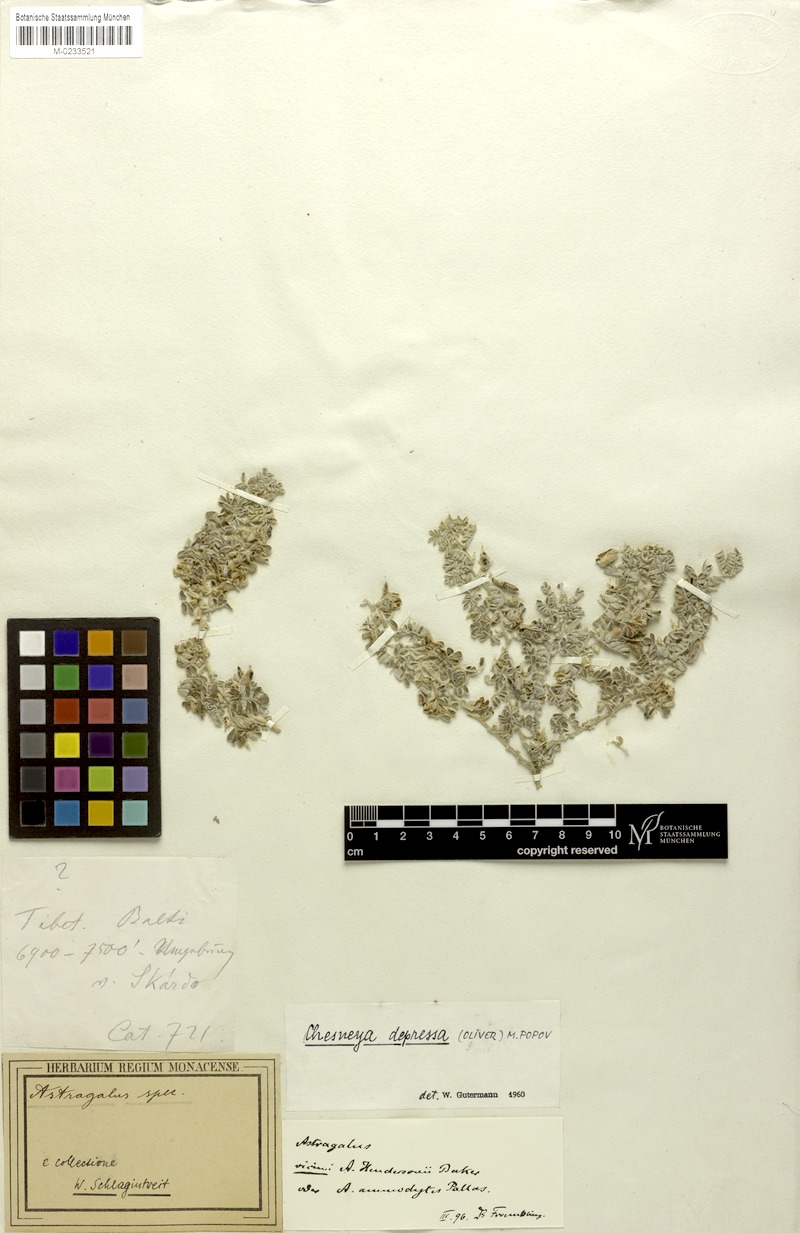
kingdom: Plantae
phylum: Tracheophyta
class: Magnoliopsida
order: Fabales
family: Fabaceae
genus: Chesneya
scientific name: Chesneya depressa
